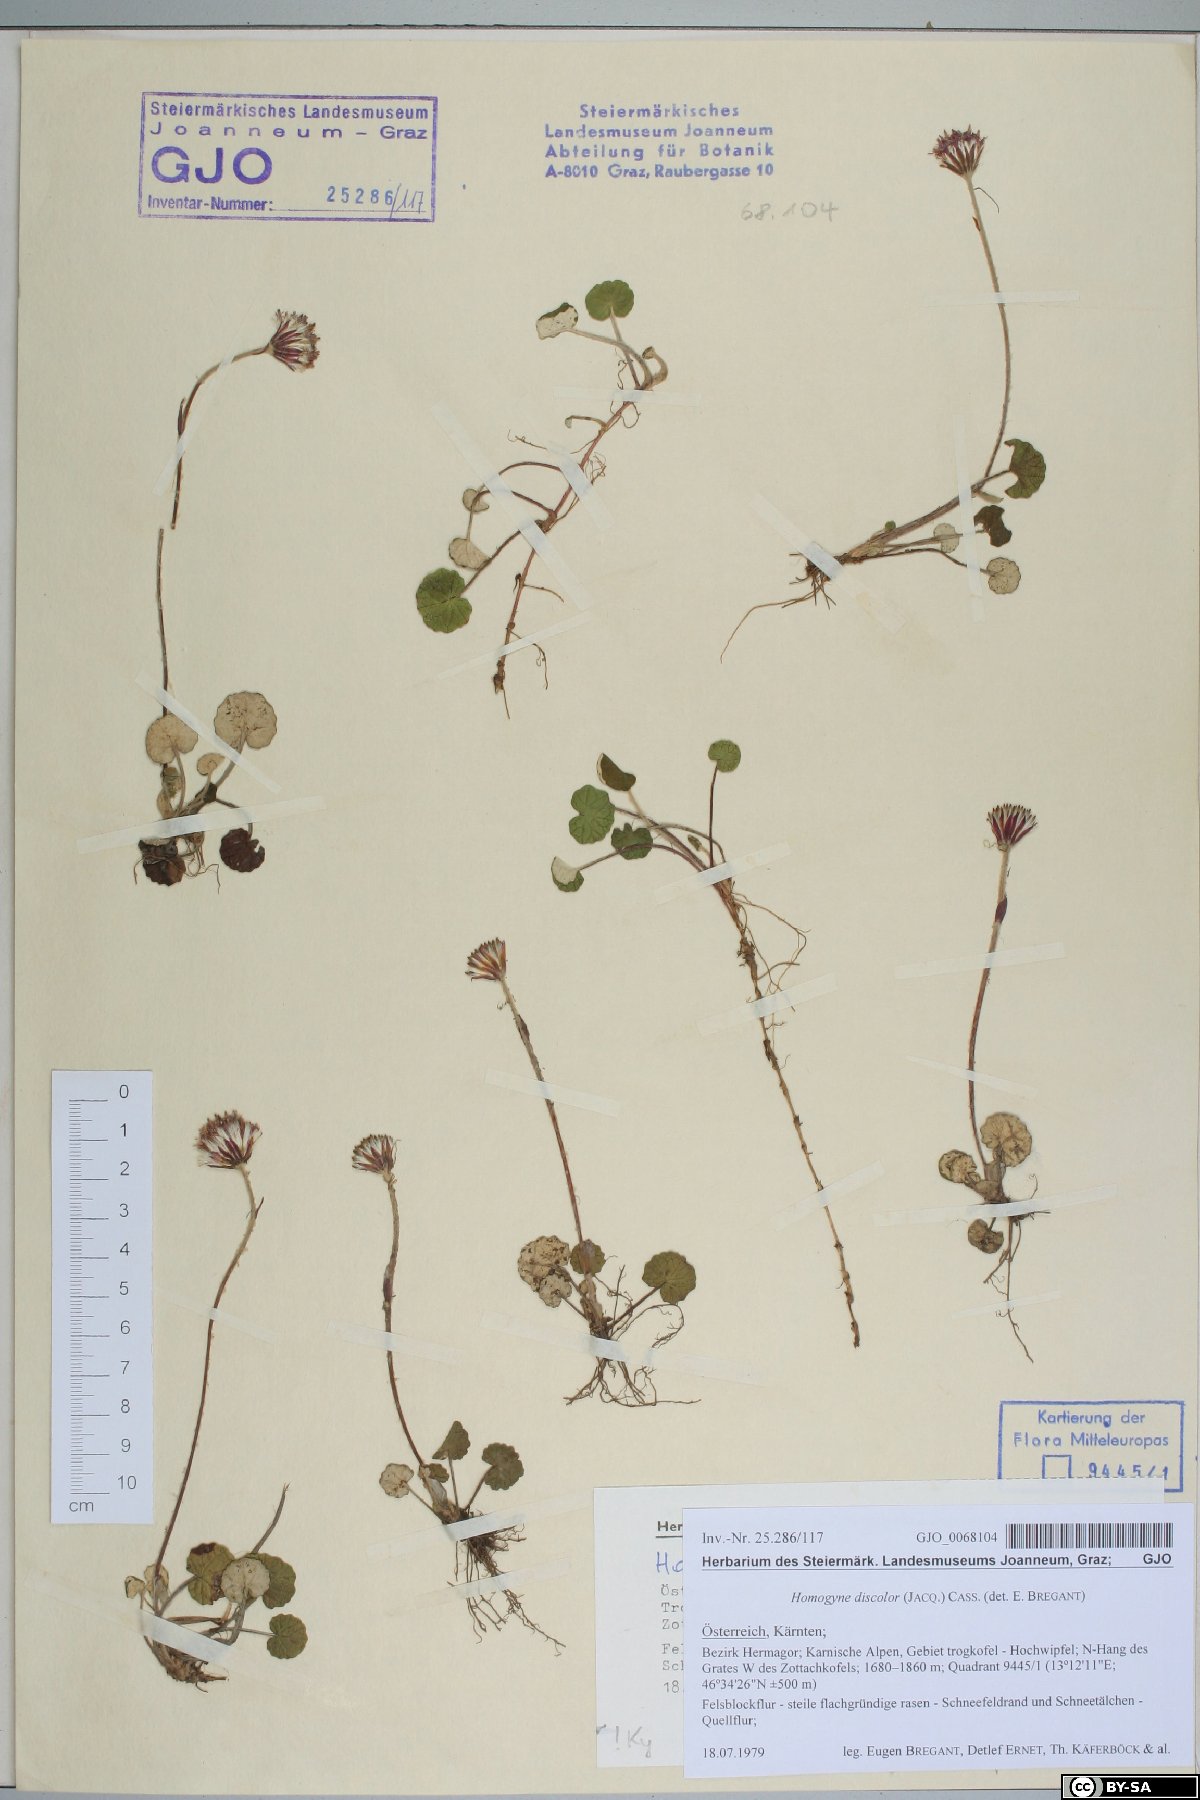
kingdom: Plantae
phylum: Tracheophyta
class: Magnoliopsida
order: Asterales
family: Asteraceae
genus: Homogyne
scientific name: Homogyne discolor
